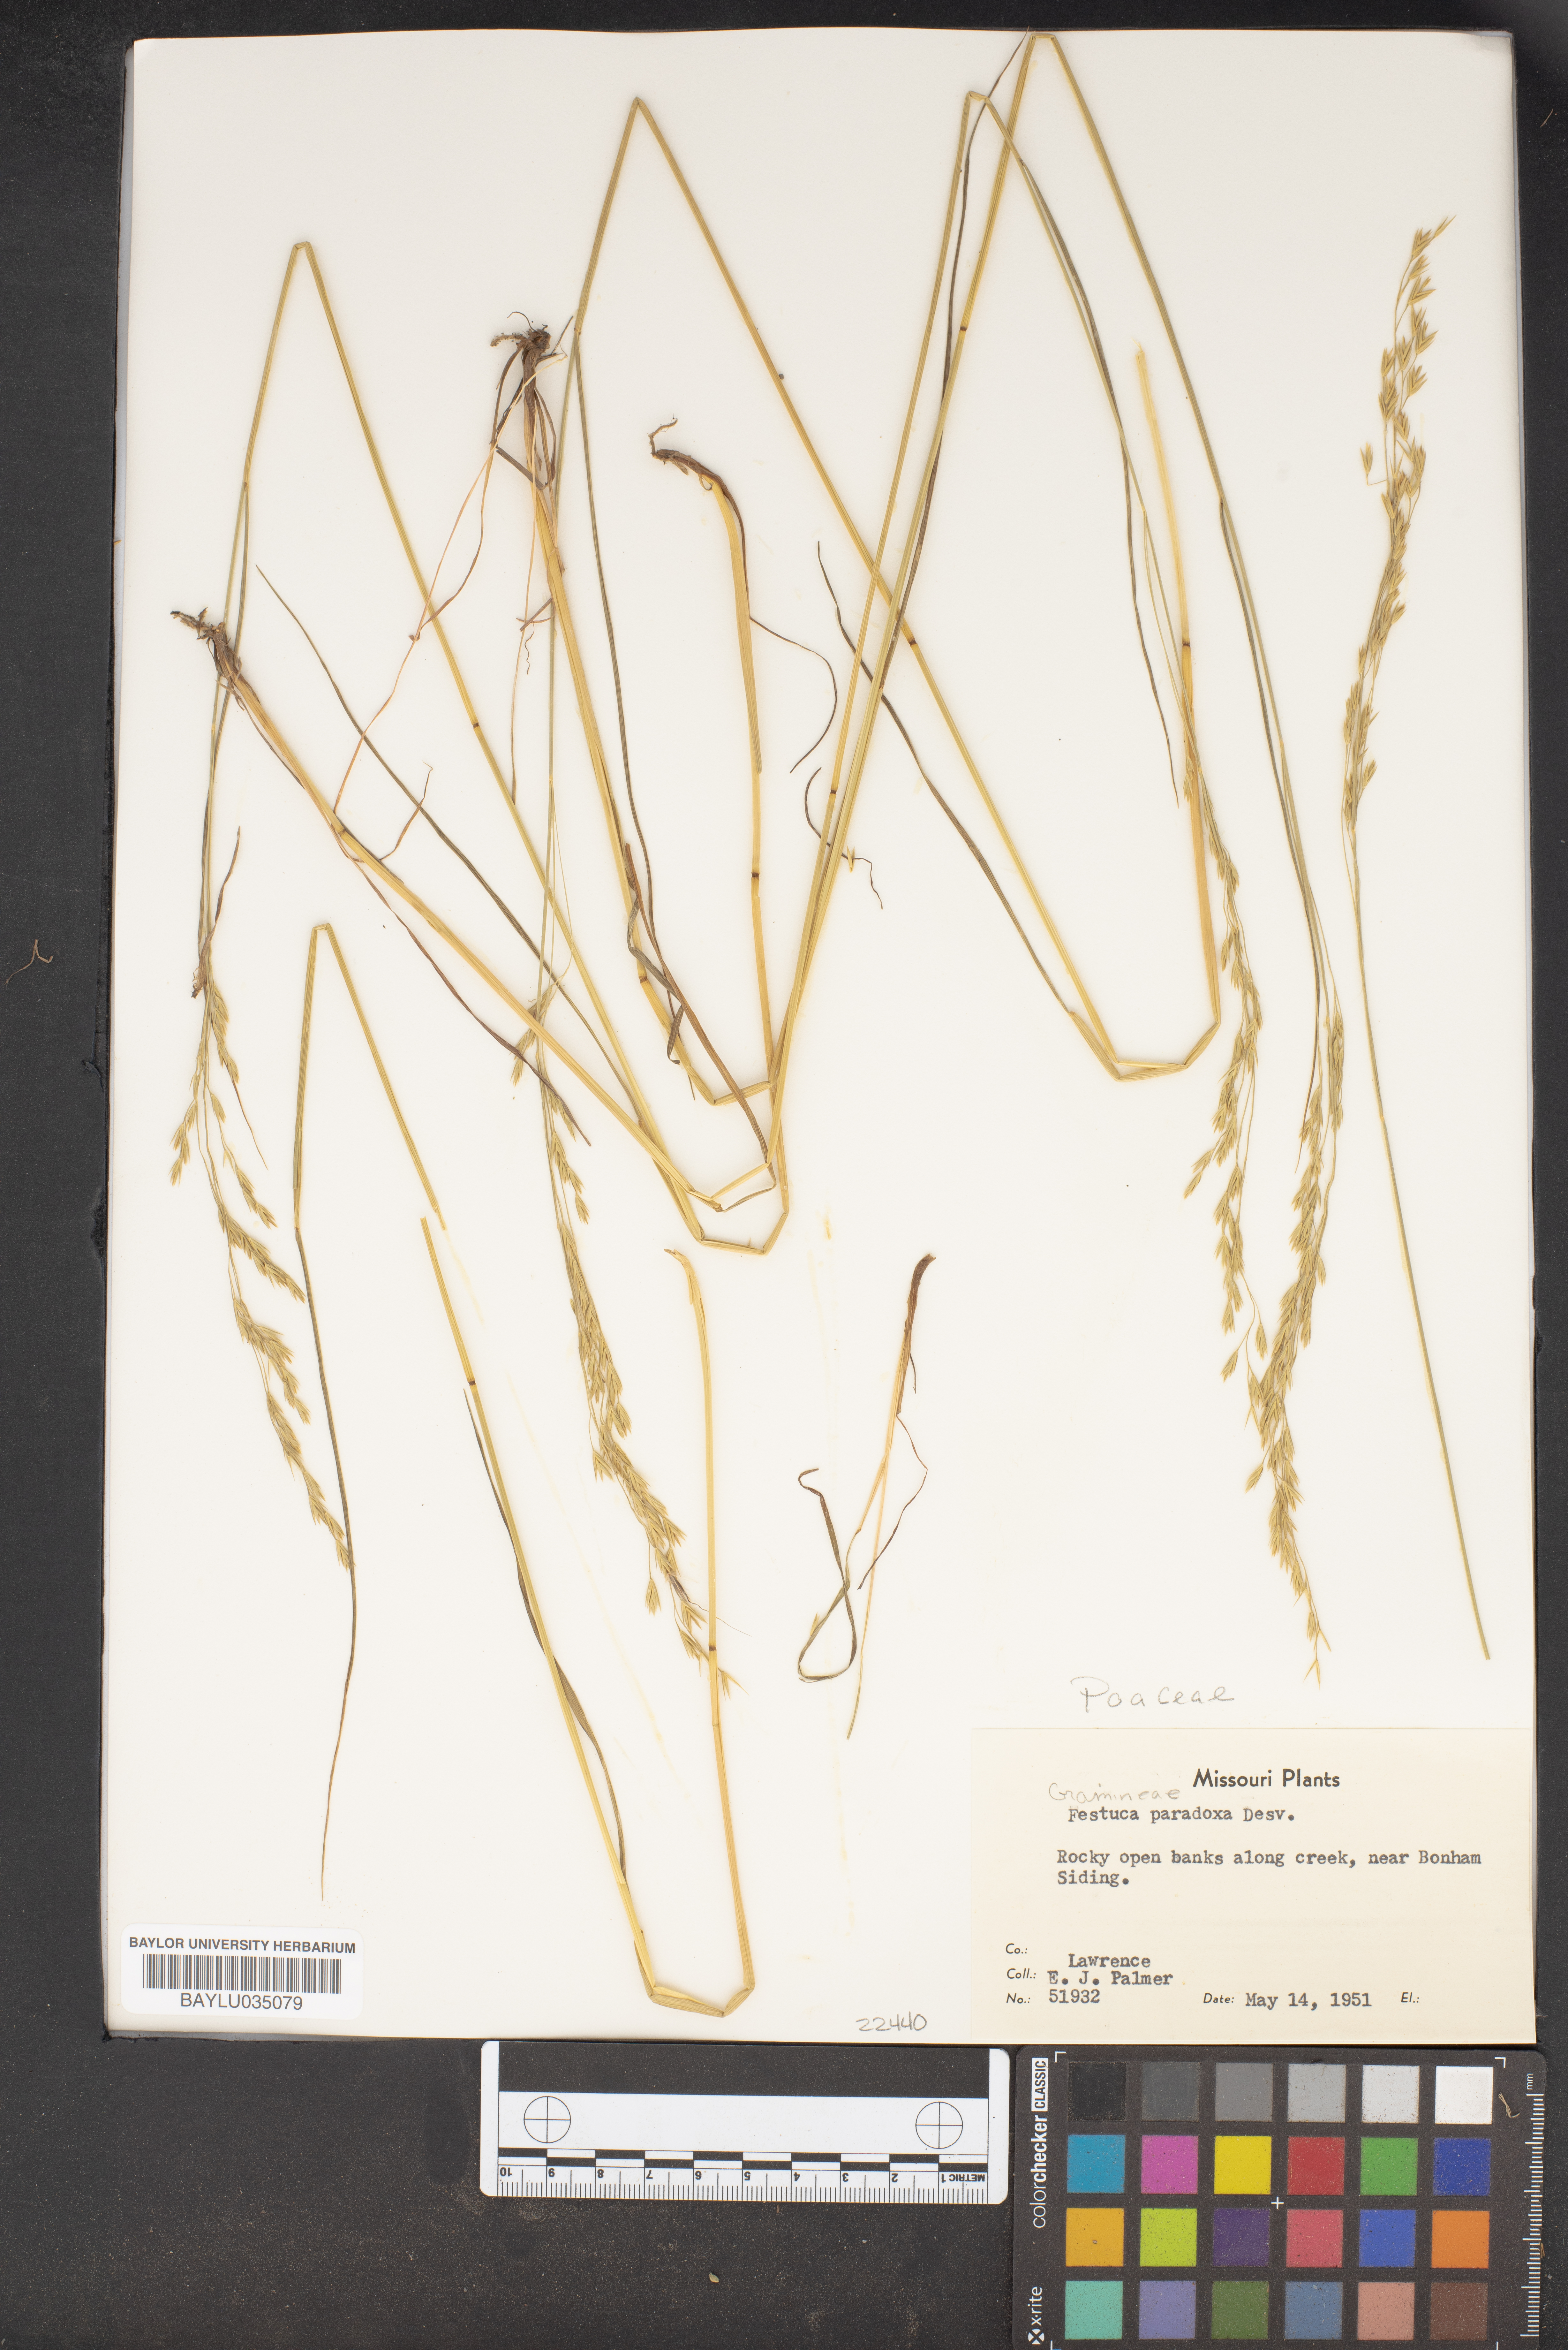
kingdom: Plantae
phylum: Tracheophyta
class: Liliopsida
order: Poales
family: Poaceae
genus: Festuca
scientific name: Festuca paradoxa
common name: Cluster fescue
